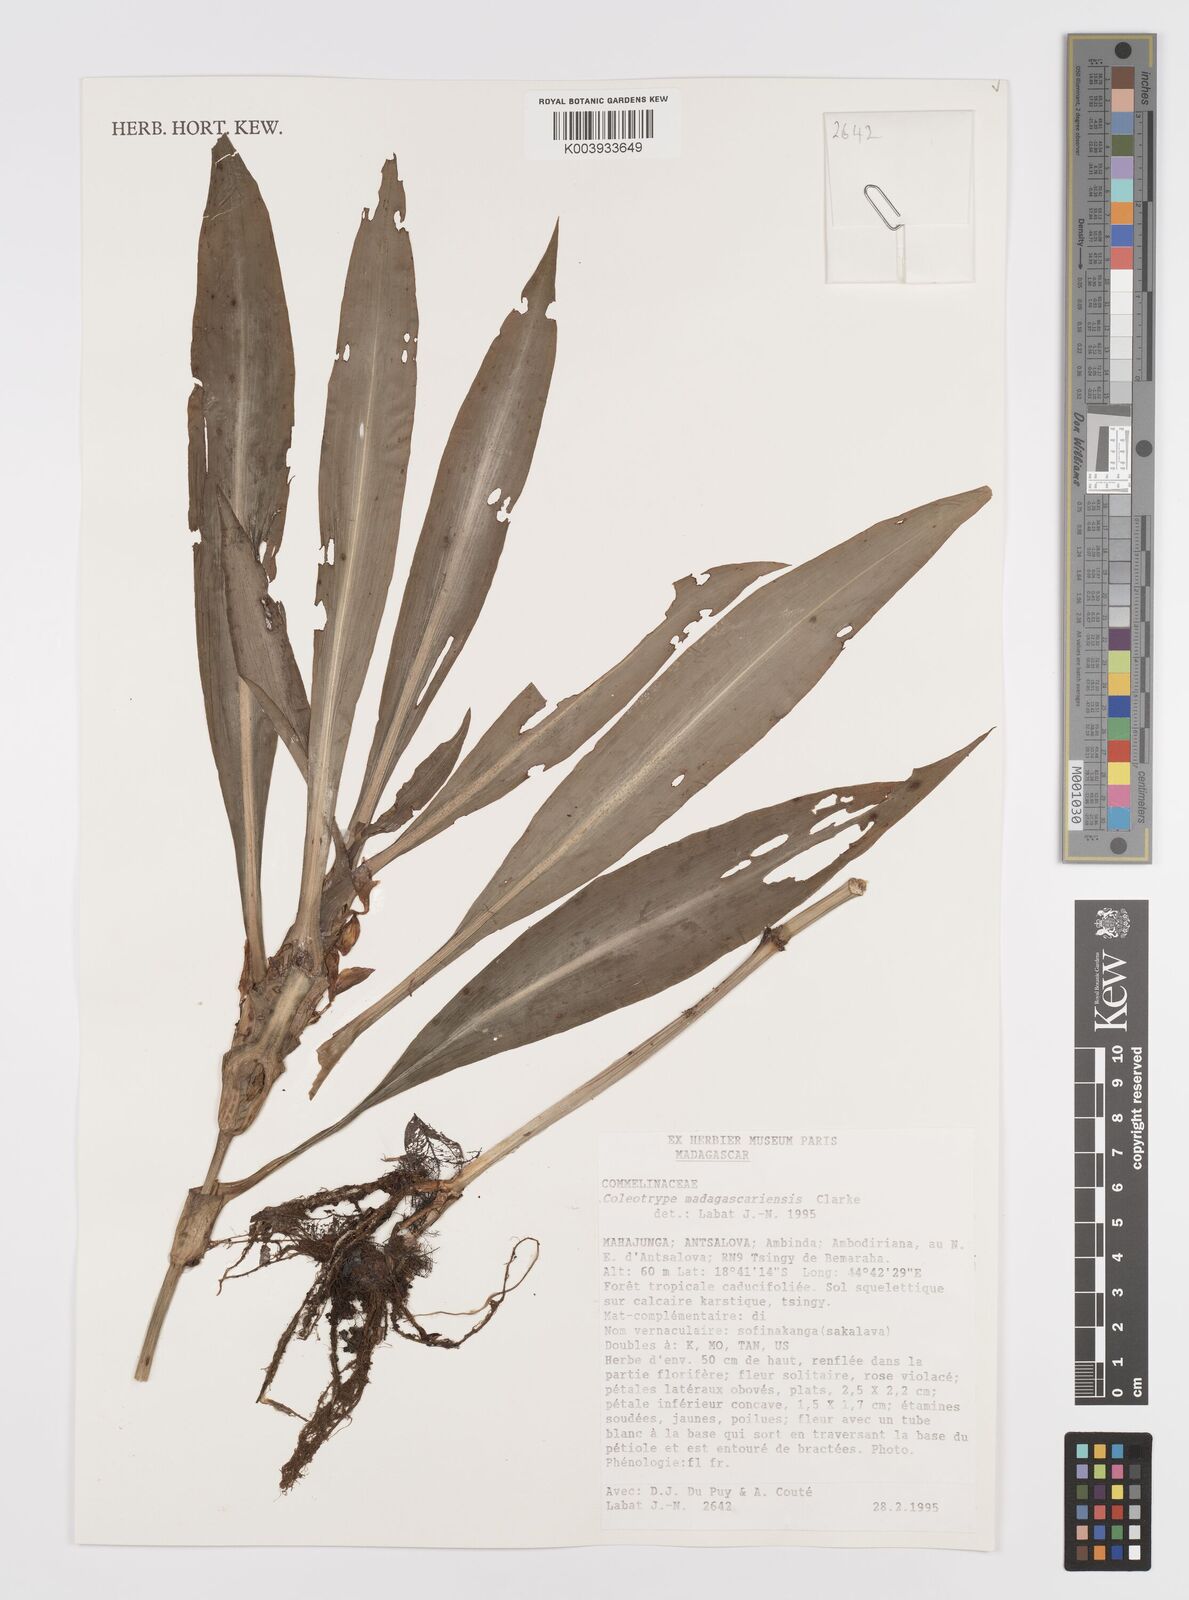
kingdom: Plantae
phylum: Tracheophyta
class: Liliopsida
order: Commelinales
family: Commelinaceae
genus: Coleotrype
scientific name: Coleotrype madagascarica
